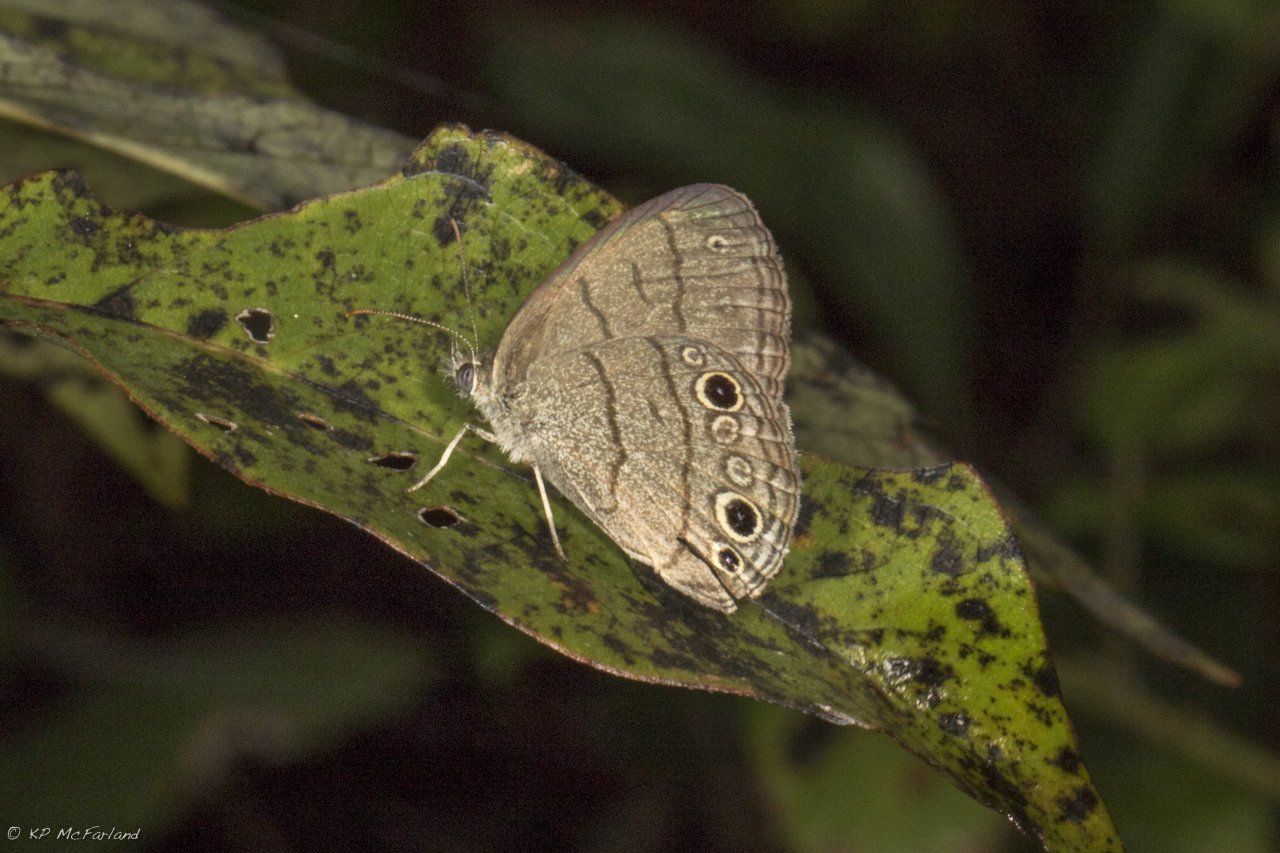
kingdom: Animalia
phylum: Arthropoda
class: Insecta
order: Lepidoptera
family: Nymphalidae
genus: Hermeuptychia
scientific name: Hermeuptychia hermes
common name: Carolina Satyr
